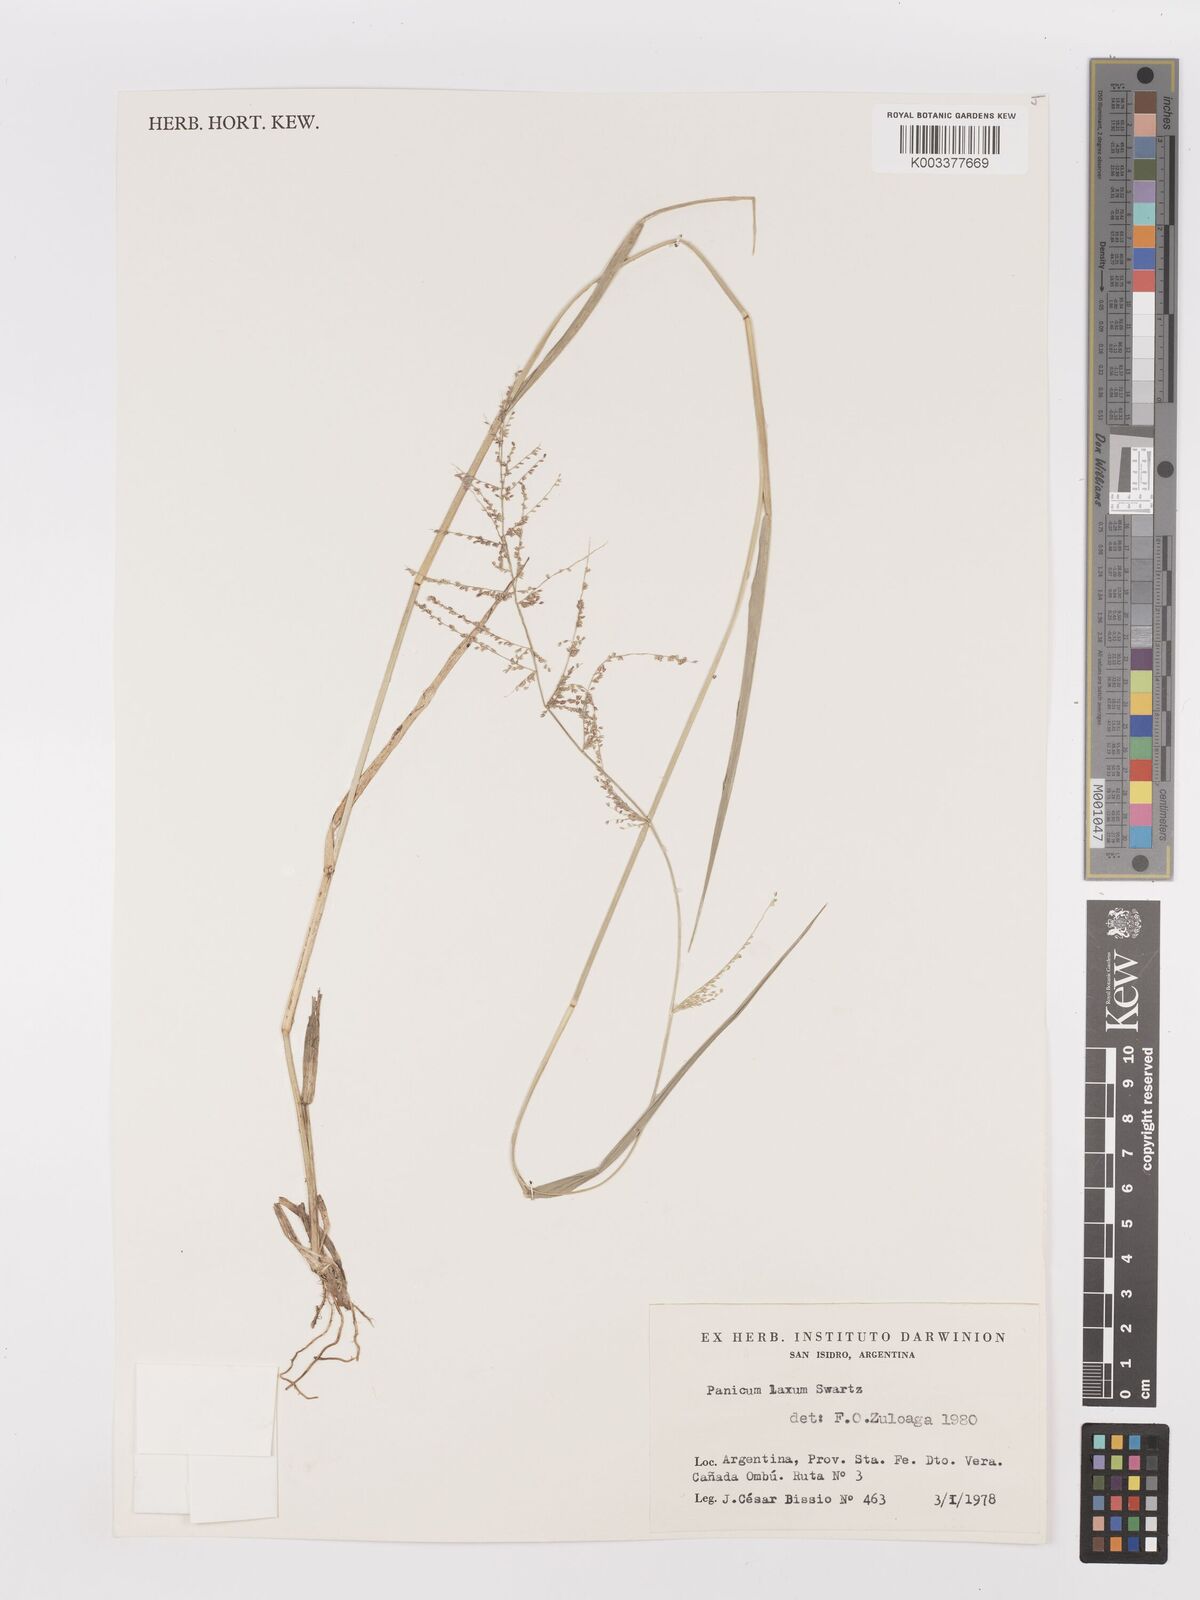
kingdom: Plantae
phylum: Tracheophyta
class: Liliopsida
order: Poales
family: Poaceae
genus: Steinchisma
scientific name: Steinchisma laxum
